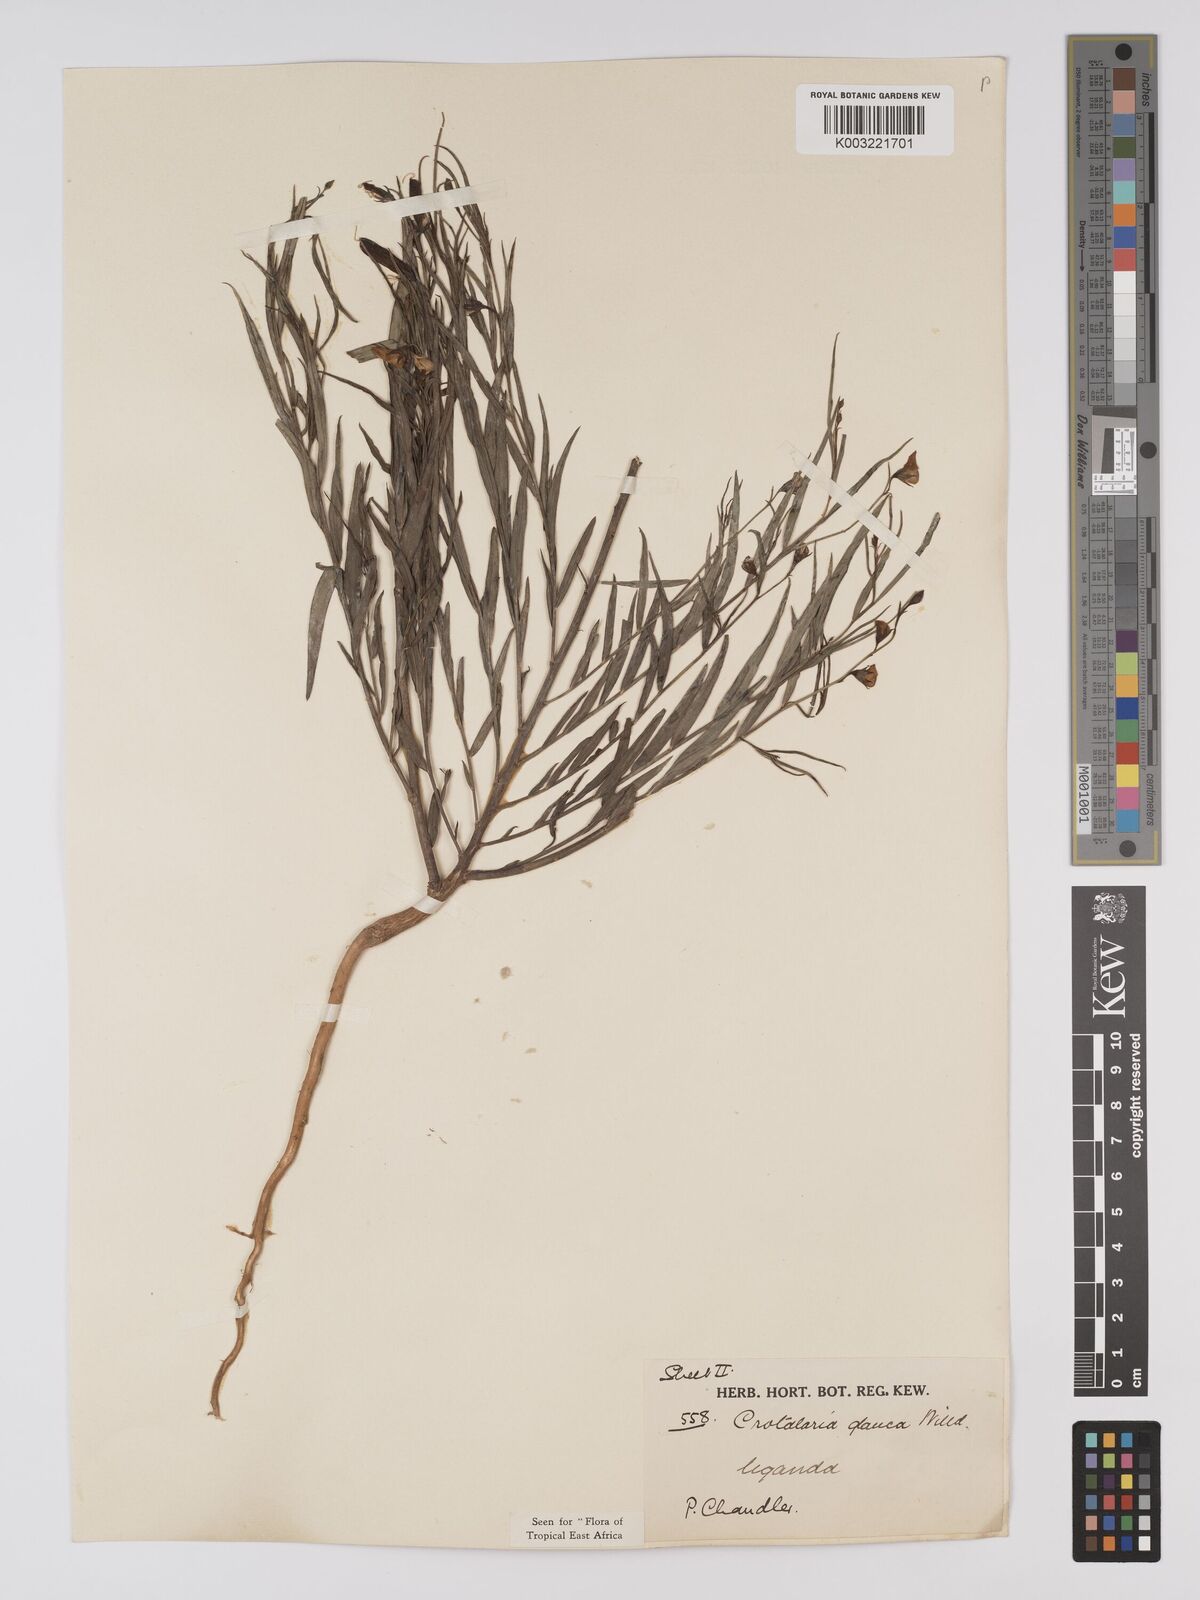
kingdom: Plantae
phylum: Tracheophyta
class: Magnoliopsida
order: Fabales
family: Fabaceae
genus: Crotalaria
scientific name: Crotalaria glauca
